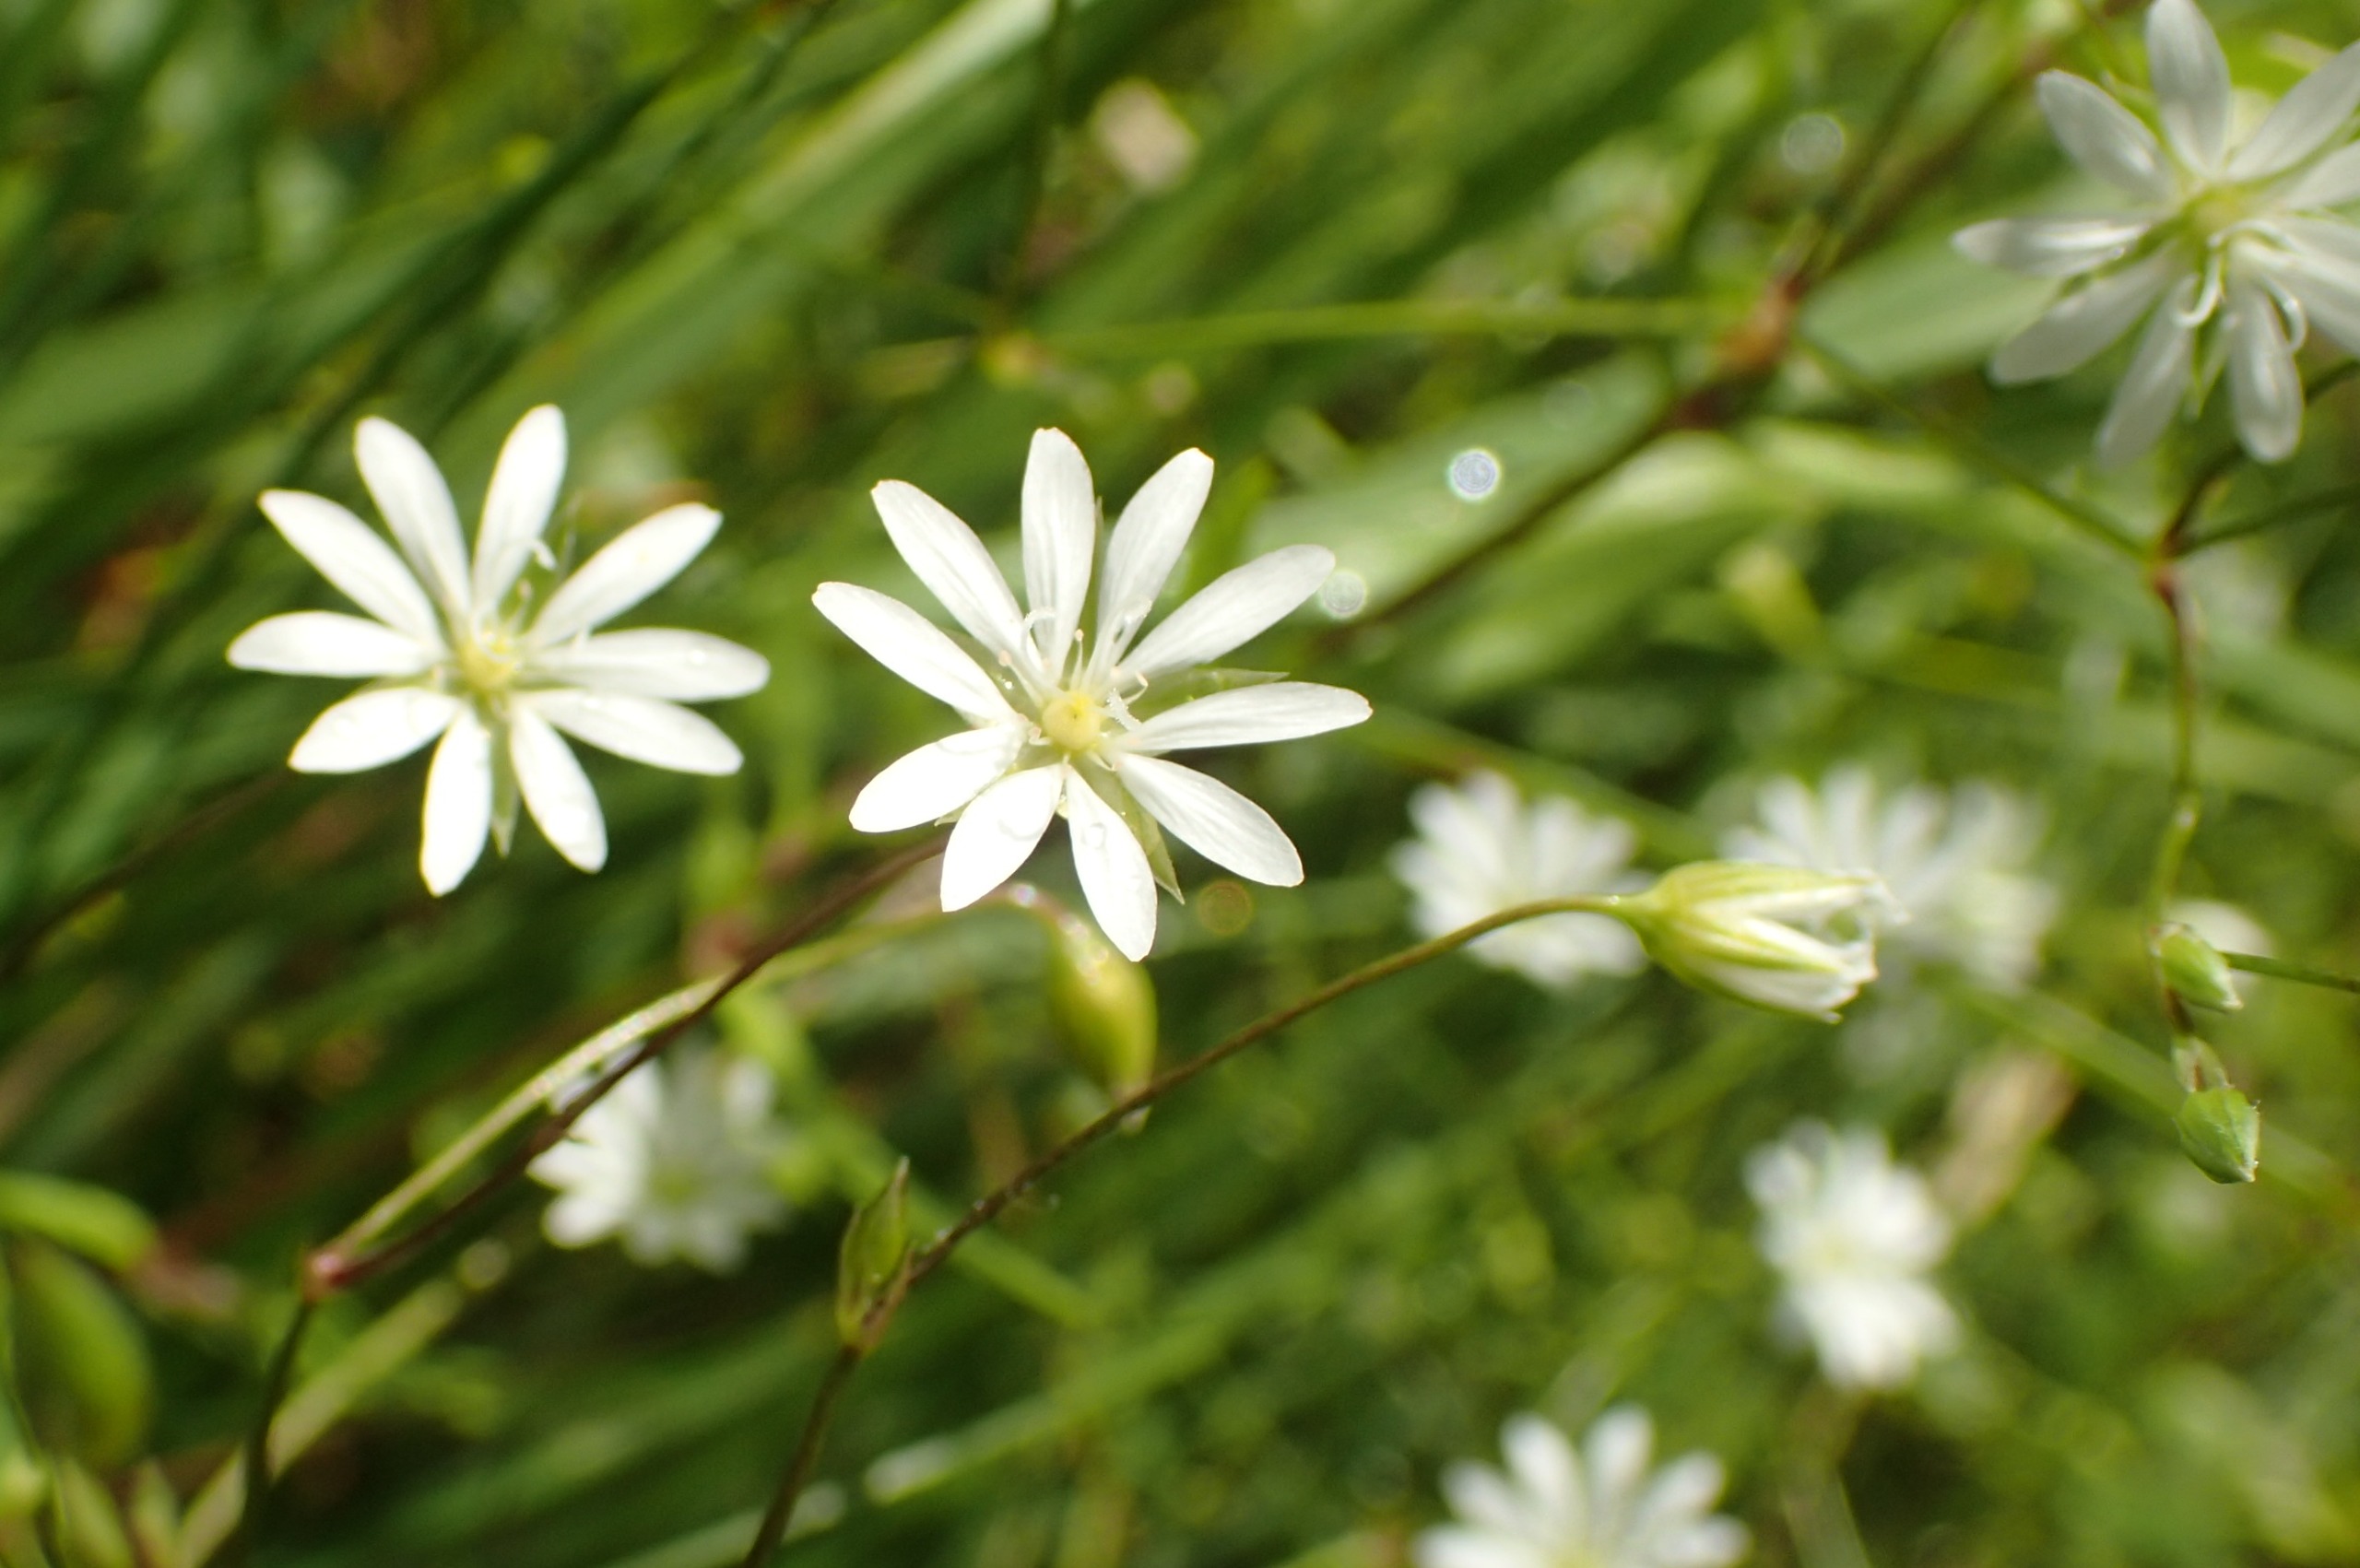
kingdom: Plantae
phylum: Tracheophyta
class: Magnoliopsida
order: Caryophyllales
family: Caryophyllaceae
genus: Stellaria
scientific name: Stellaria graminea
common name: Græsbladet fladstjerne
